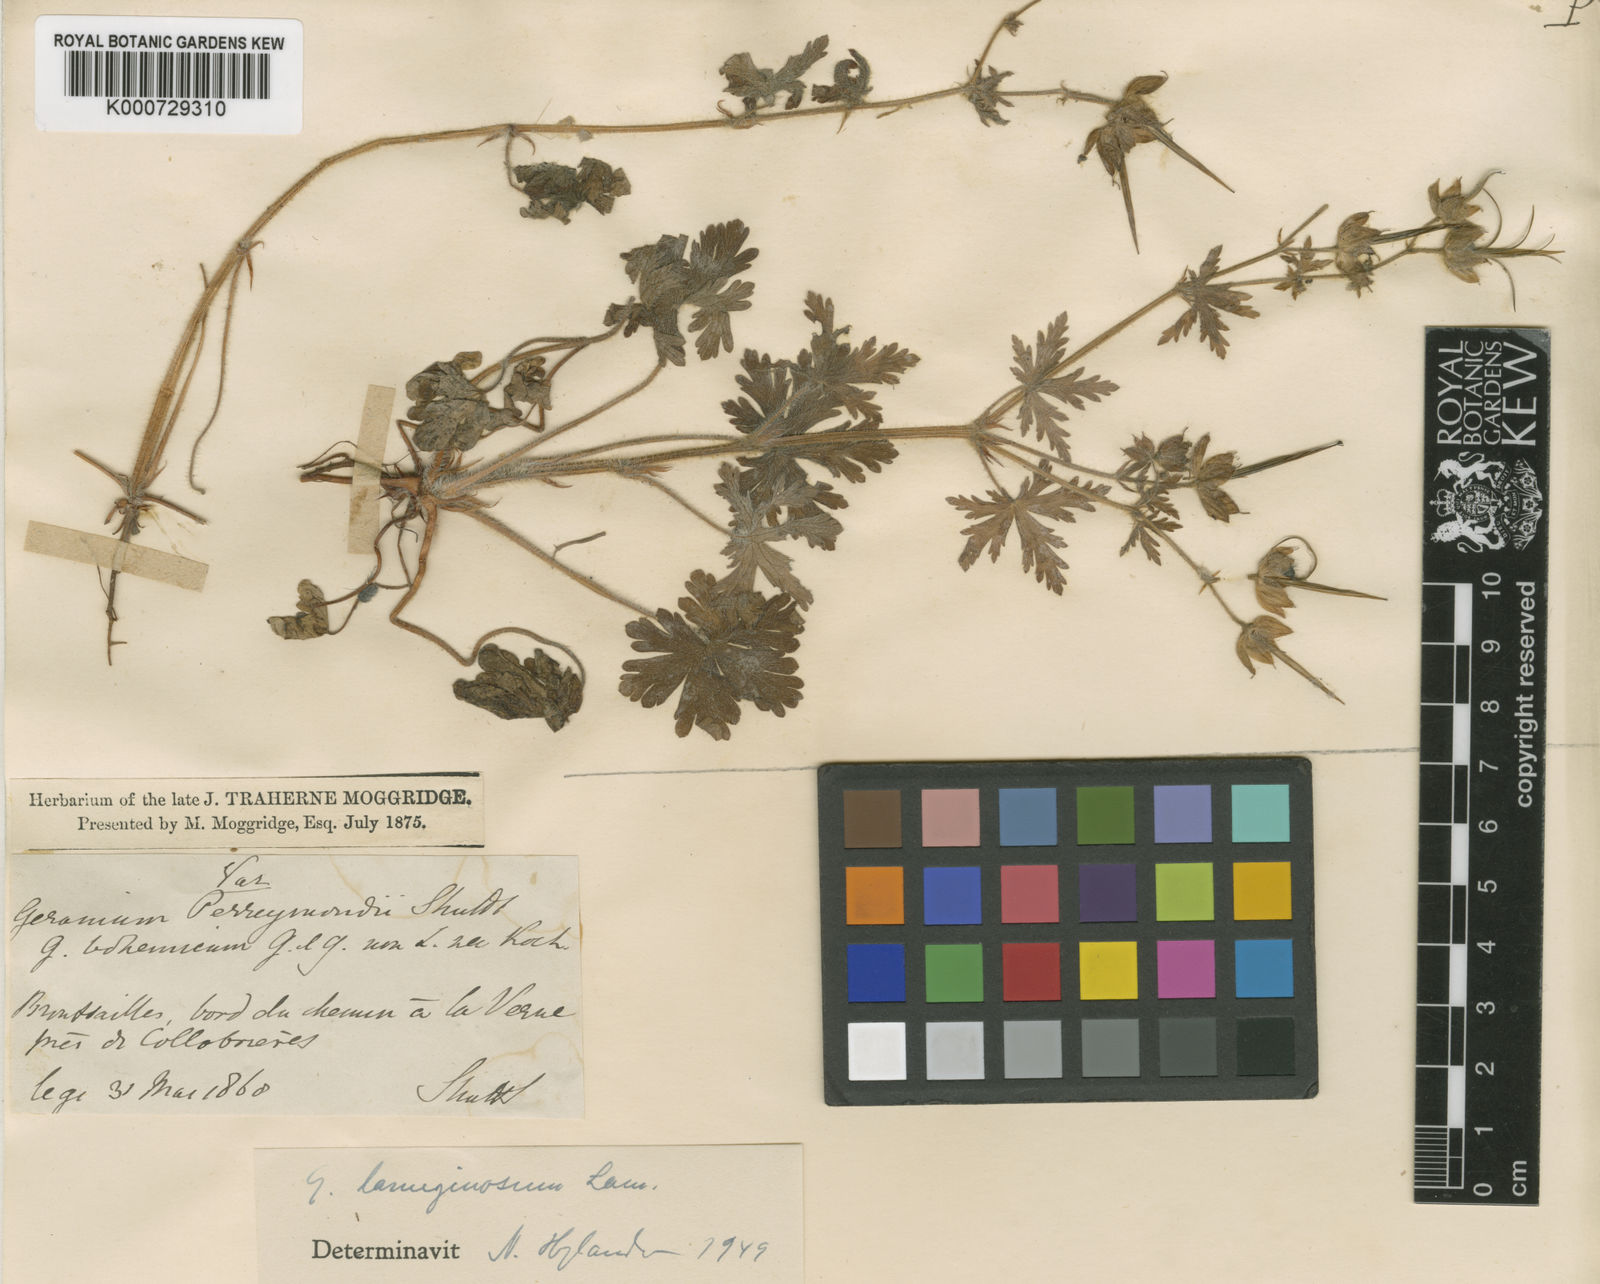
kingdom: Plantae
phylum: Tracheophyta
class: Magnoliopsida
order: Geraniales
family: Geraniaceae
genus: Geranium
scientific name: Geranium lanuginosum
